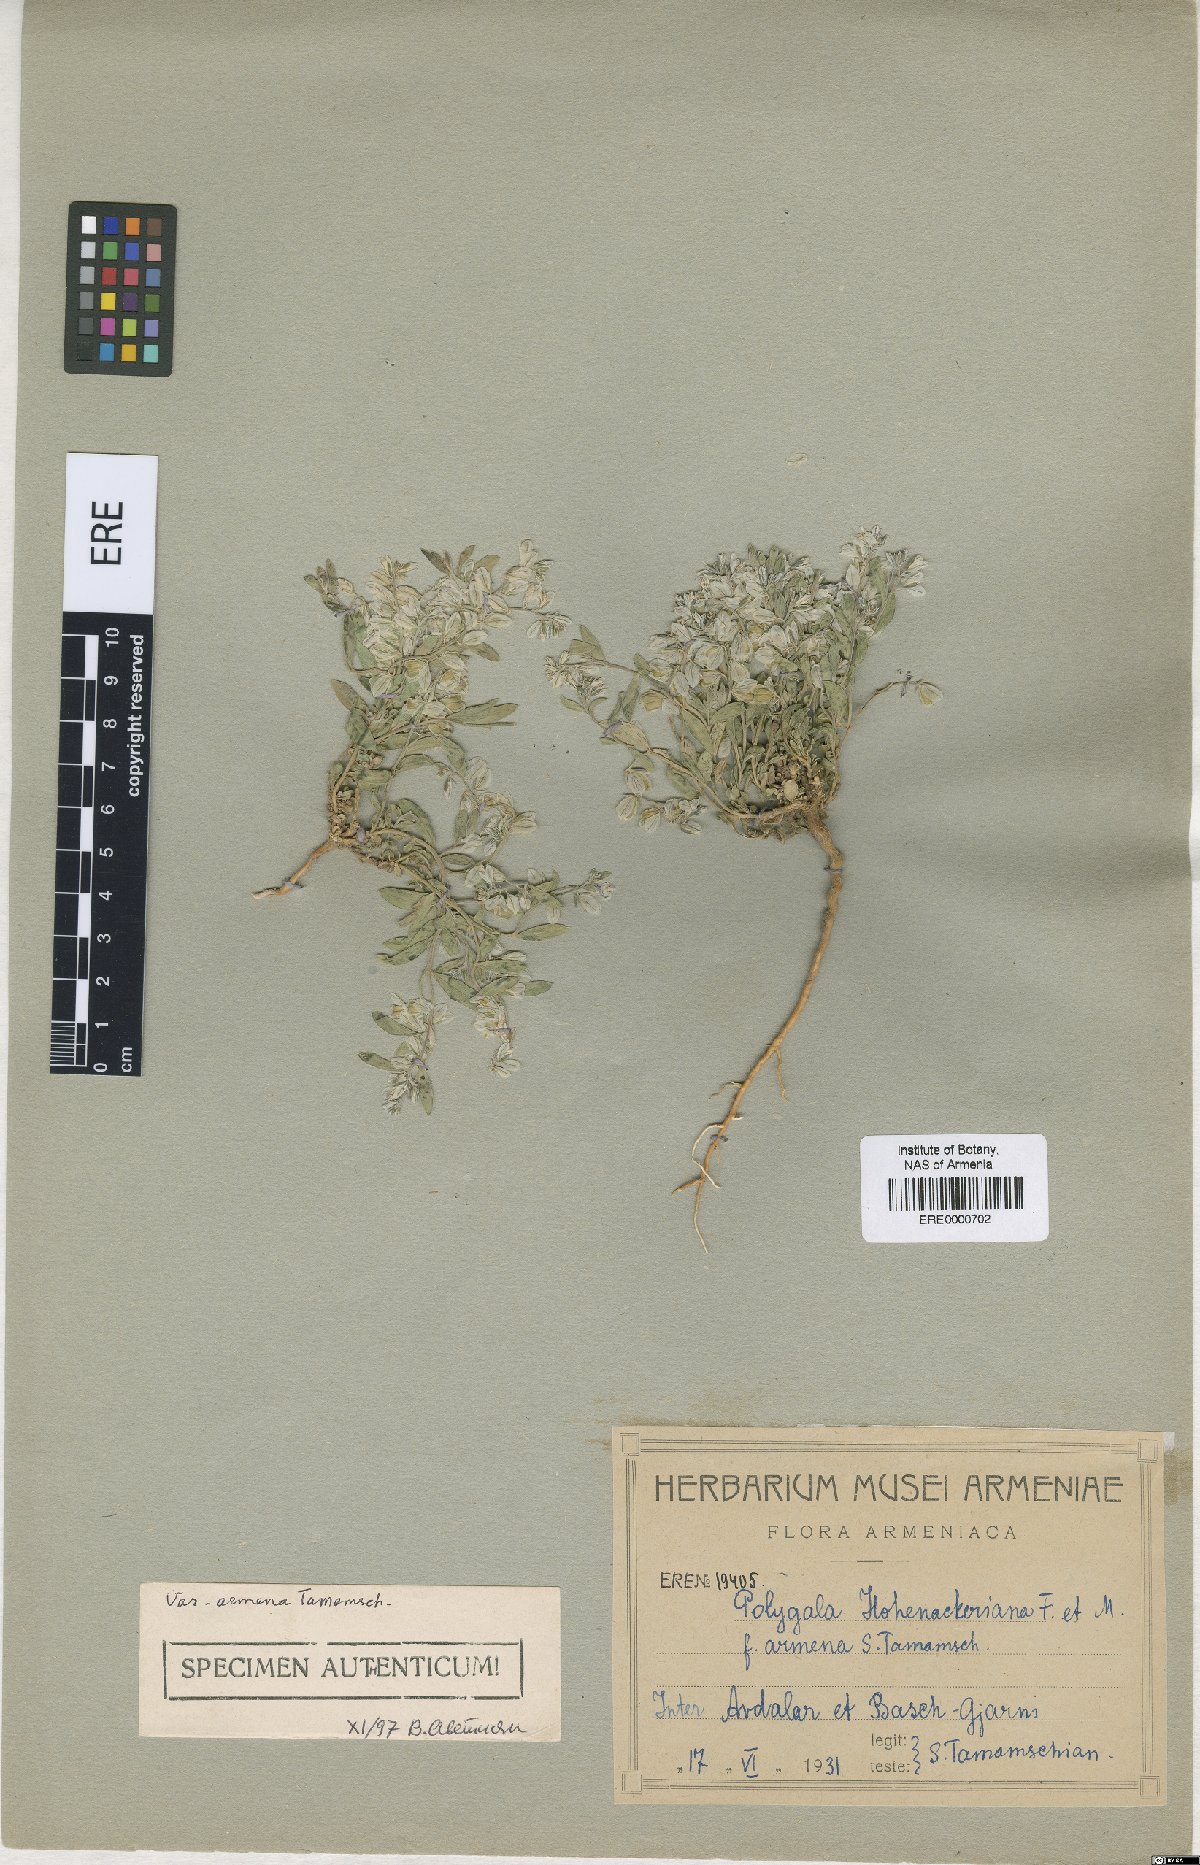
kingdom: Plantae
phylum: Tracheophyta
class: Magnoliopsida
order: Fabales
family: Polygalaceae
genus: Polygala
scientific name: Polygala hohenackeriana
